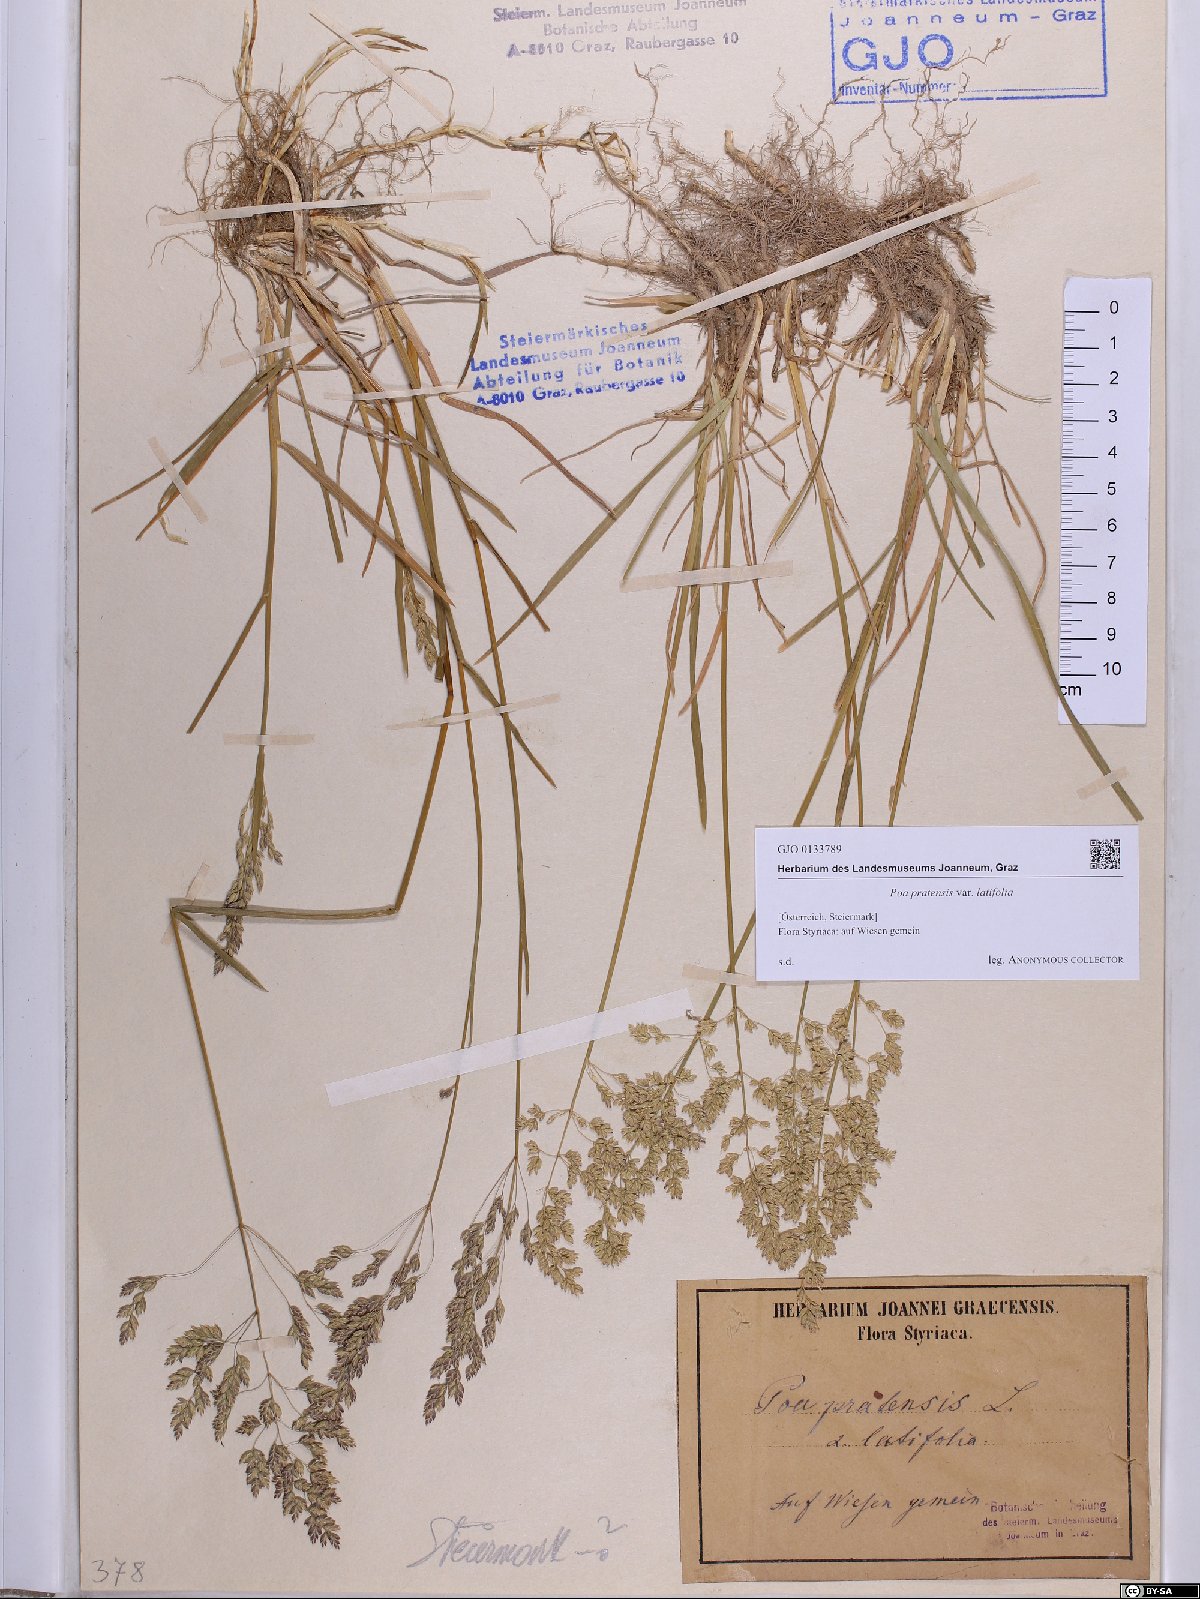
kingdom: Plantae
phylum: Tracheophyta
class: Liliopsida
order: Poales
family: Poaceae
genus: Poa
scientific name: Poa humilis
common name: Spreading meadow-grass
